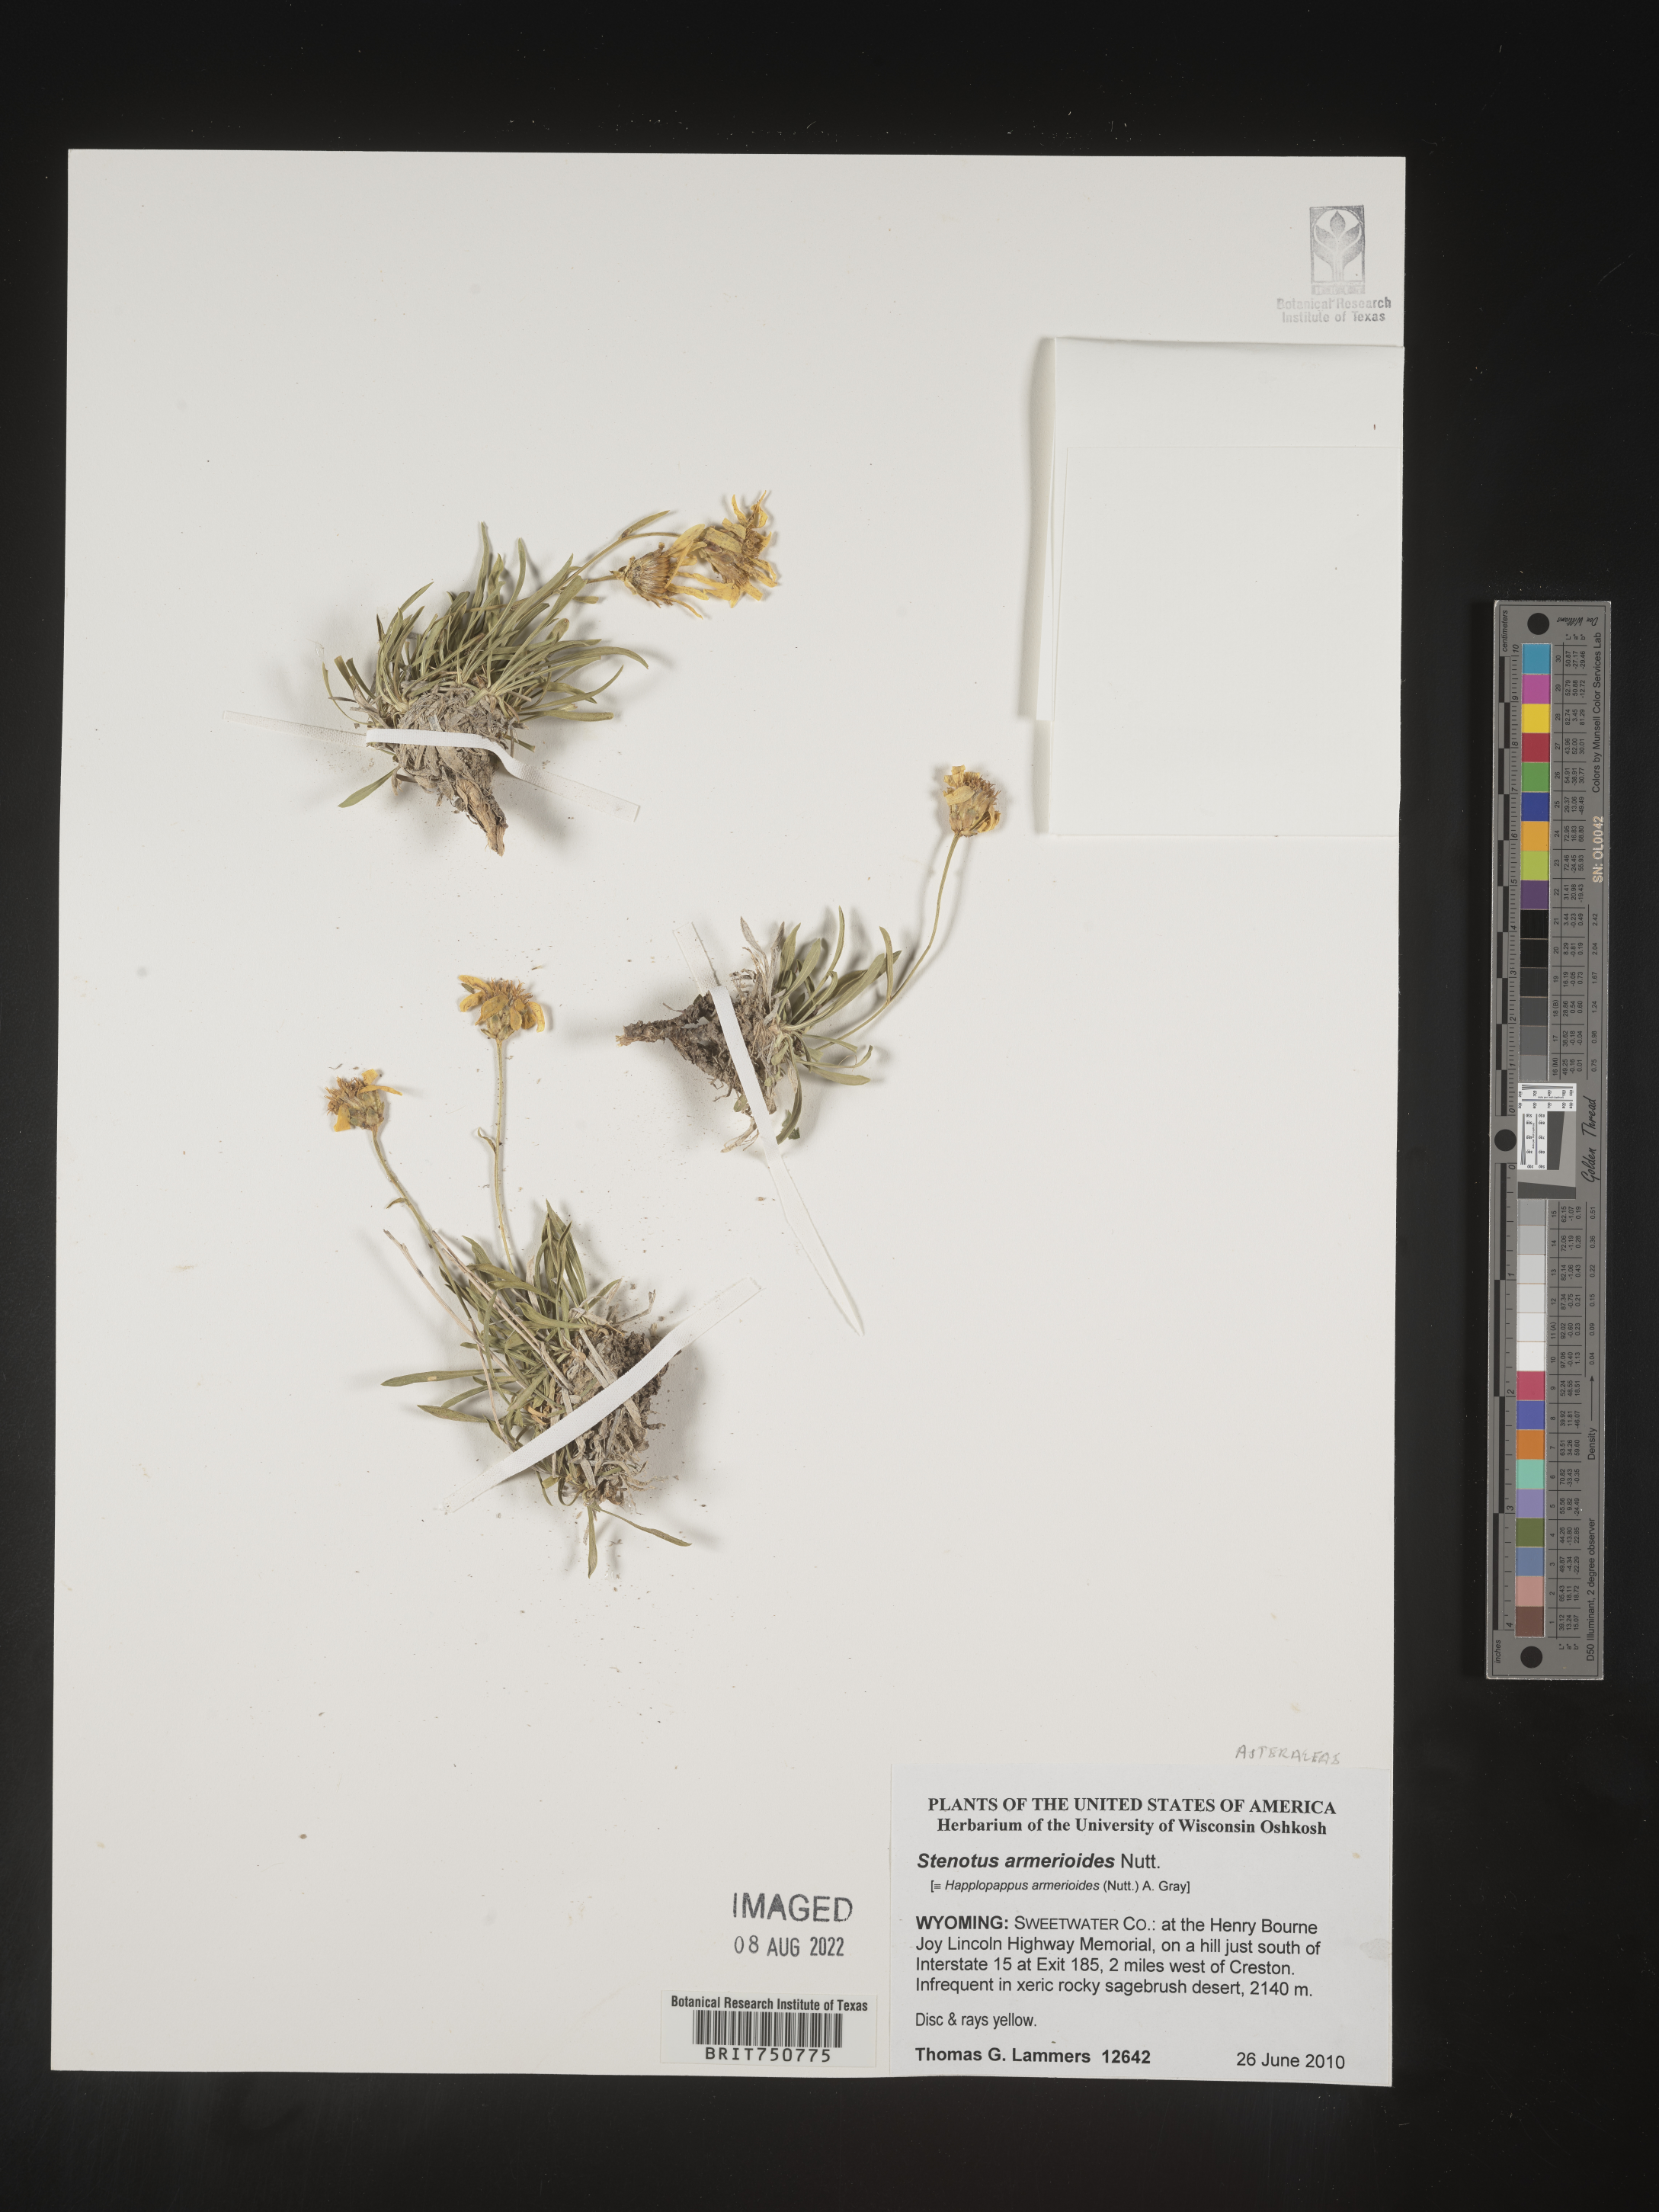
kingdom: Plantae
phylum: Tracheophyta
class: Magnoliopsida
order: Asterales
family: Asteraceae
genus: Stenotus
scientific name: Stenotus armerioides
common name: Thrifty goldenweed
